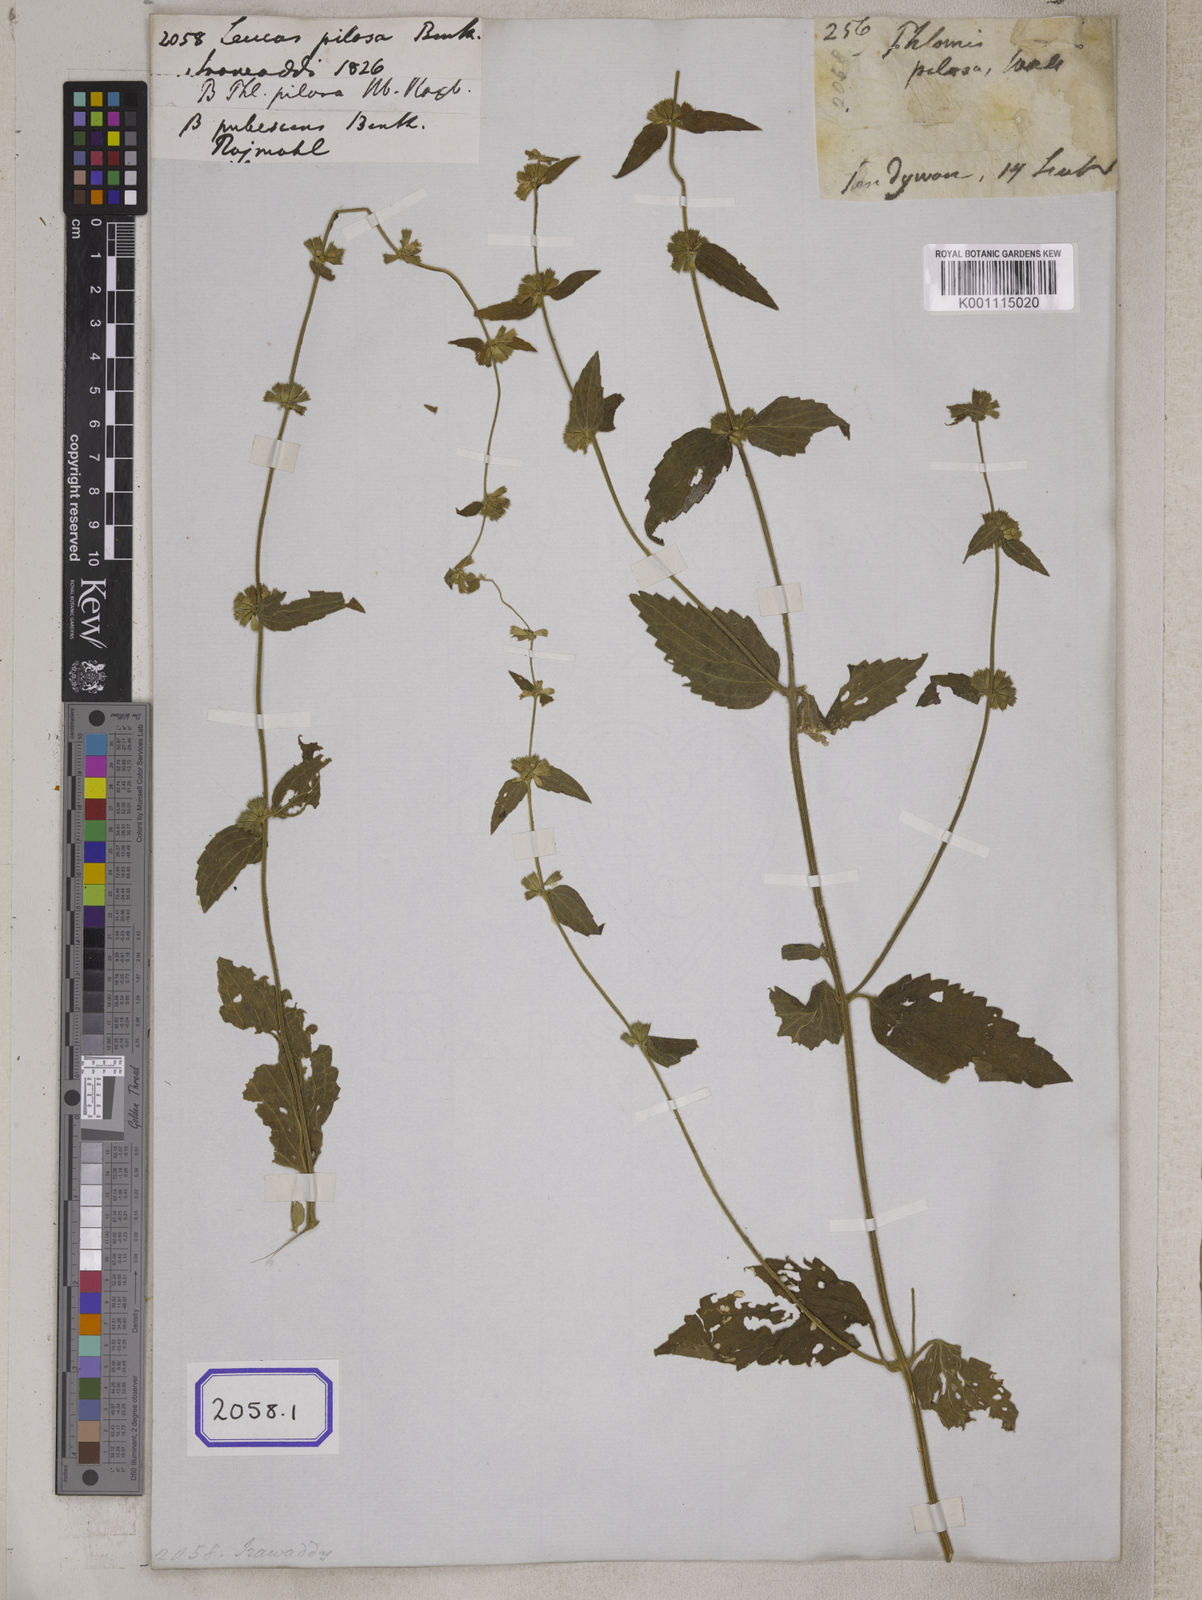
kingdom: Plantae
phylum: Tracheophyta
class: Magnoliopsida
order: Lamiales
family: Lamiaceae
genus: Leucas
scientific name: Leucas pilosa
